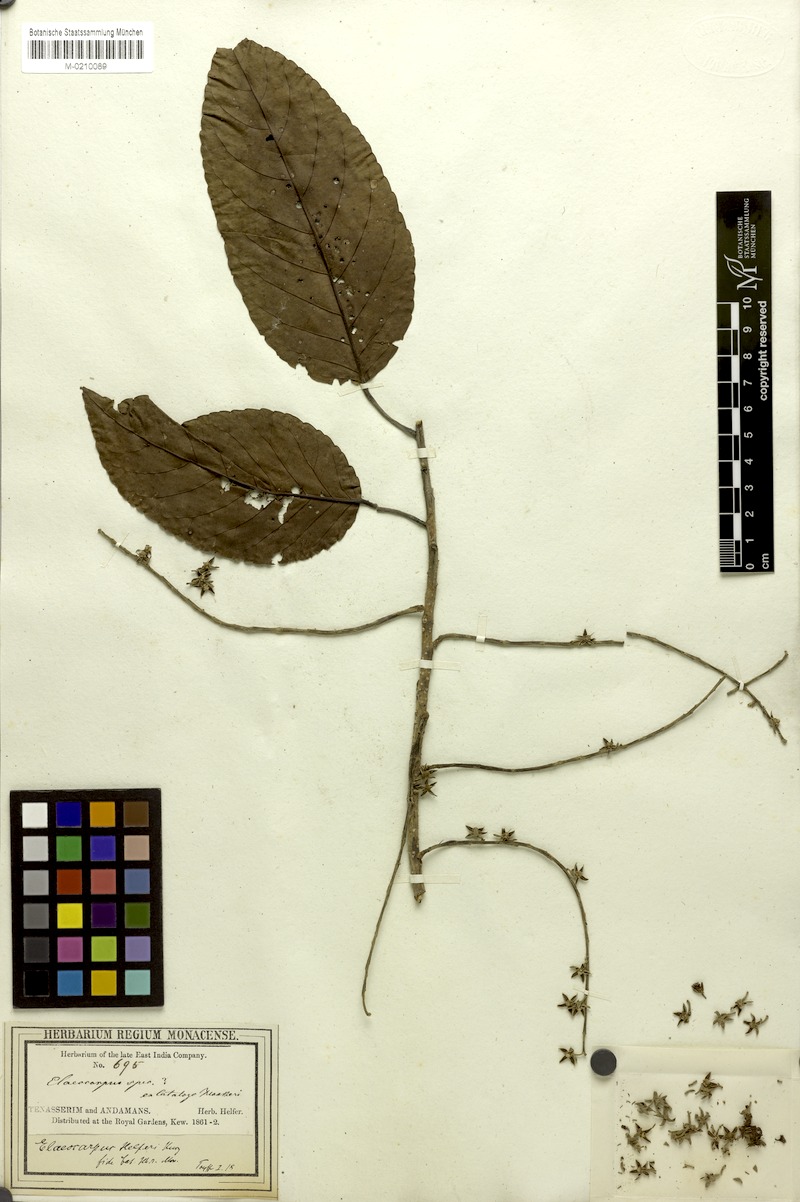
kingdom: Plantae
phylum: Tracheophyta
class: Magnoliopsida
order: Oxalidales
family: Elaeocarpaceae
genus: Elaeocarpus
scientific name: Elaeocarpus stipularis
